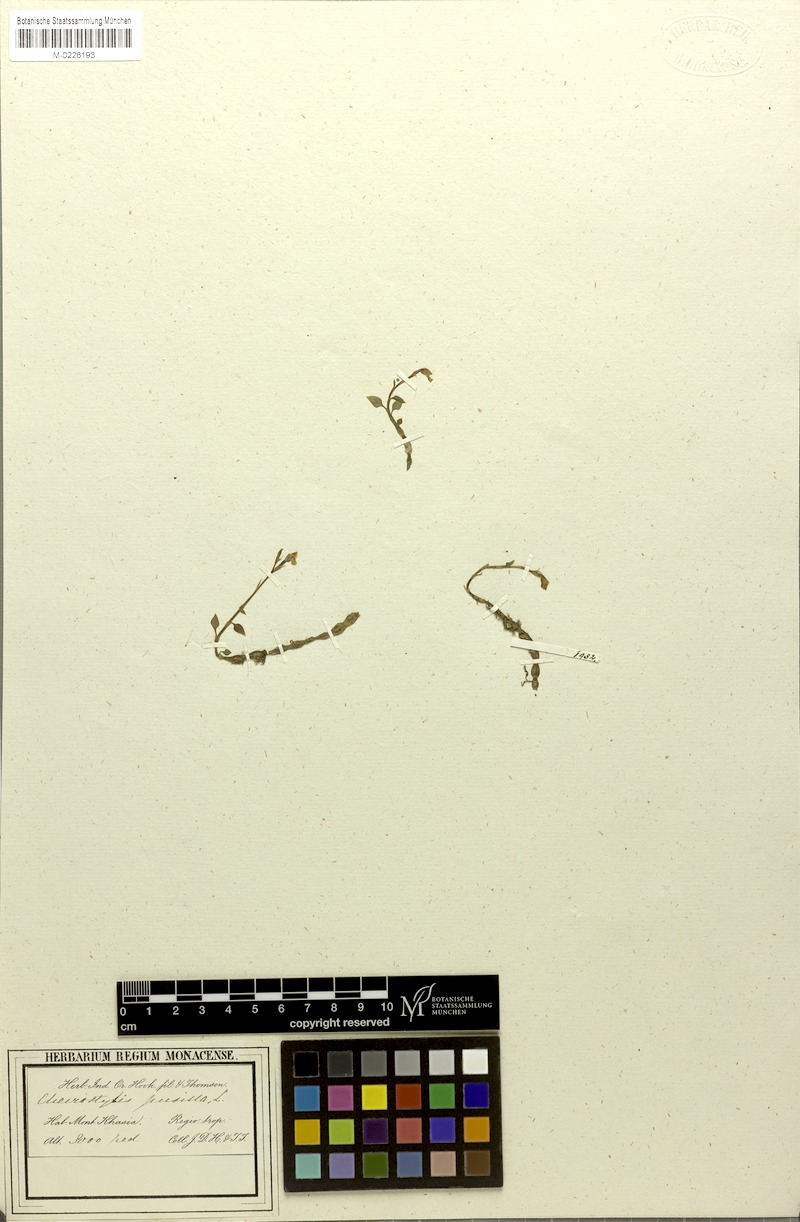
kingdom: Plantae
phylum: Tracheophyta
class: Liliopsida
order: Asparagales
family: Orchidaceae
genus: Cheirostylis
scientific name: Cheirostylis pusilla
